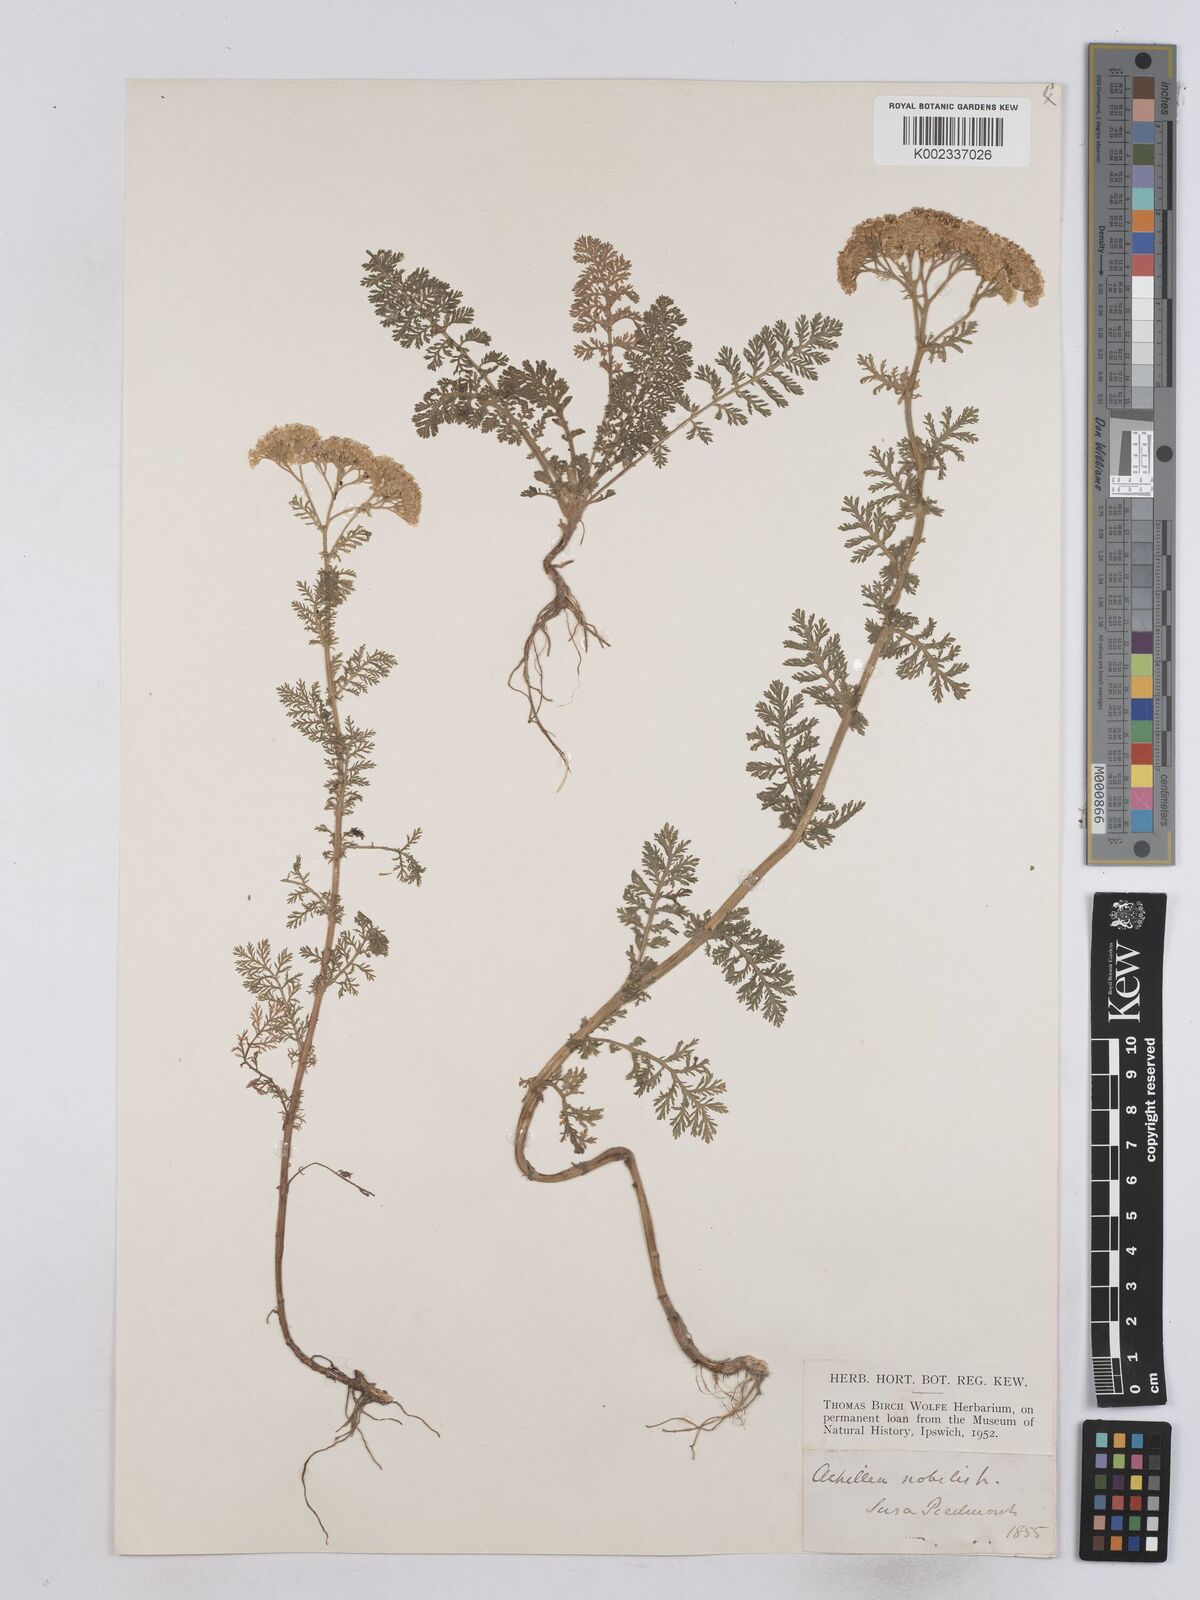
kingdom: Plantae
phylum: Tracheophyta
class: Magnoliopsida
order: Asterales
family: Asteraceae
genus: Achillea
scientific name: Achillea nobilis
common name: Noble yarrow
